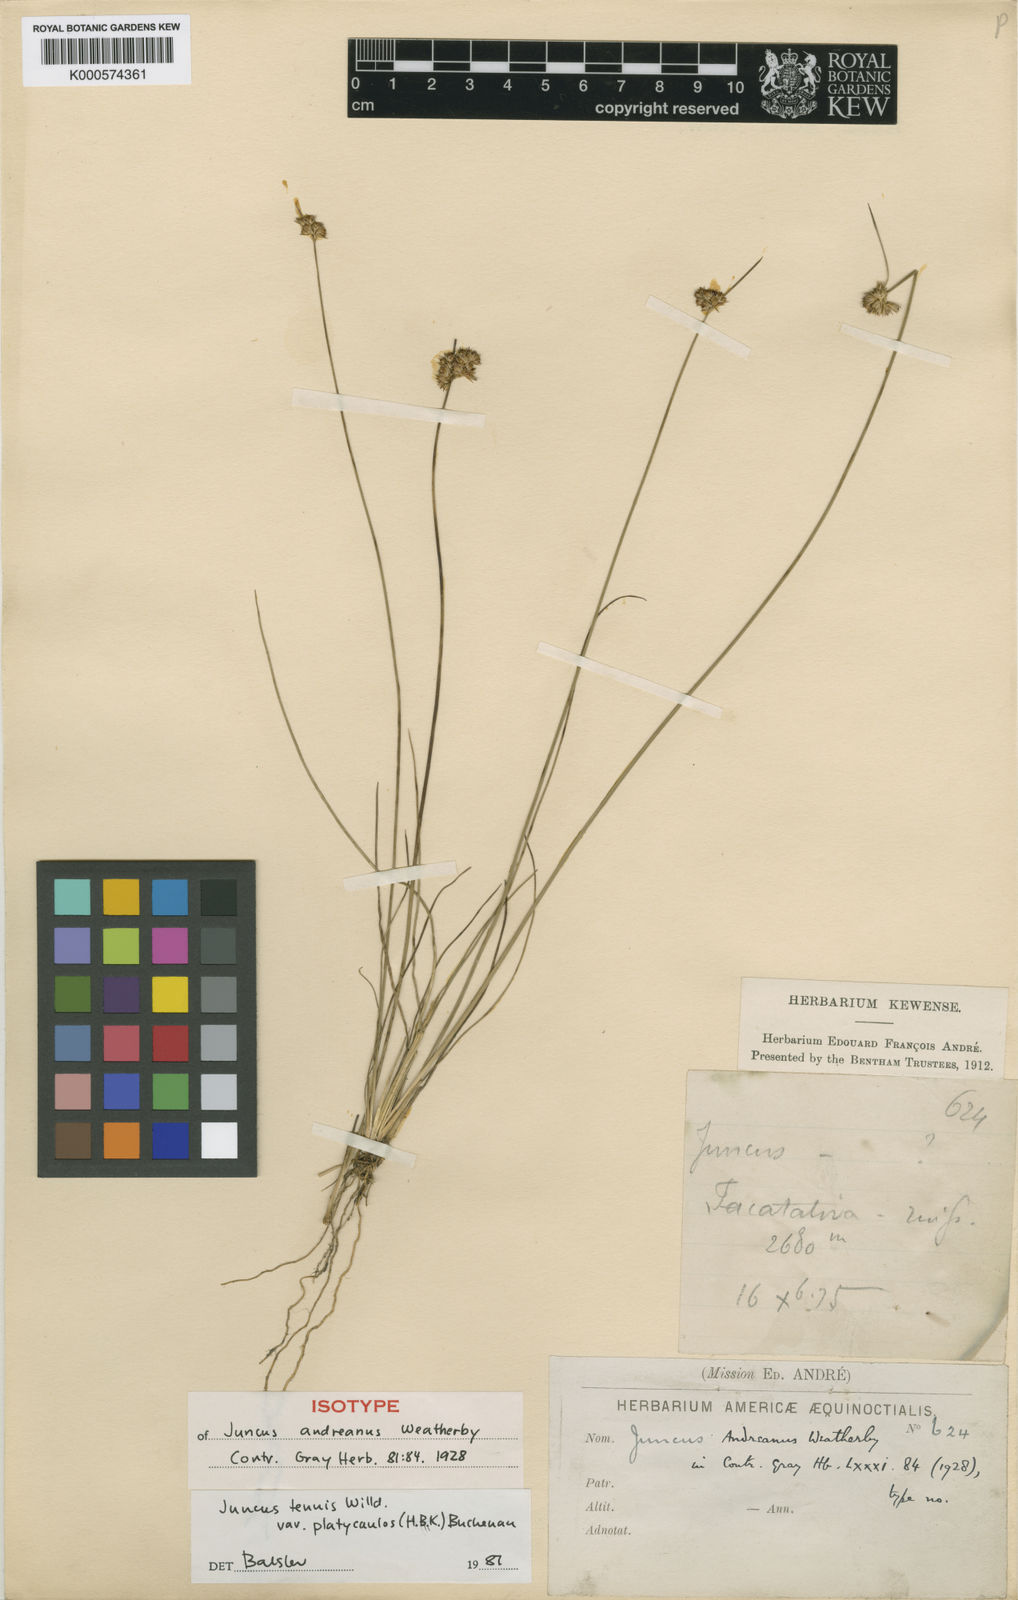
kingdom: Plantae
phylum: Tracheophyta
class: Liliopsida
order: Poales
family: Juncaceae
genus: Juncus
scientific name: Juncus dudleyi
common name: Dudley's rush
